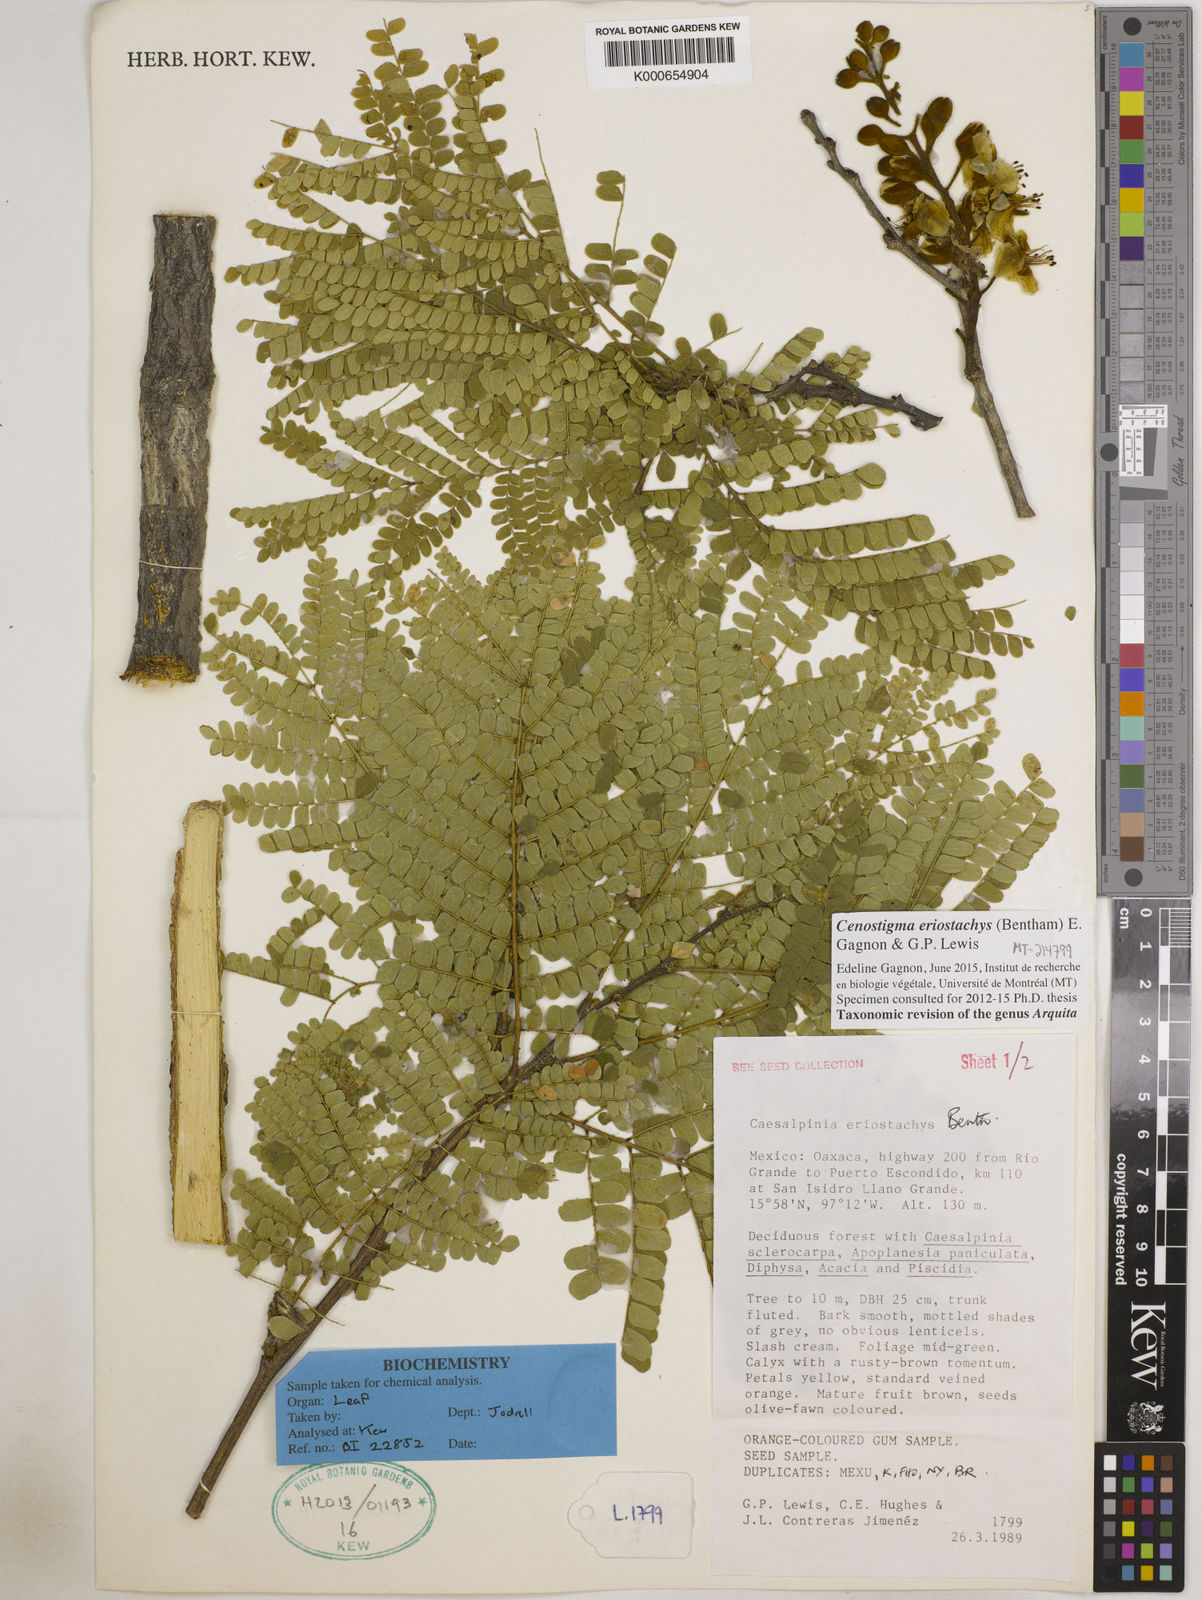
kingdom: Plantae
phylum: Tracheophyta
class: Magnoliopsida
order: Fabales
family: Fabaceae
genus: Cenostigma
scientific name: Cenostigma eriostachys
